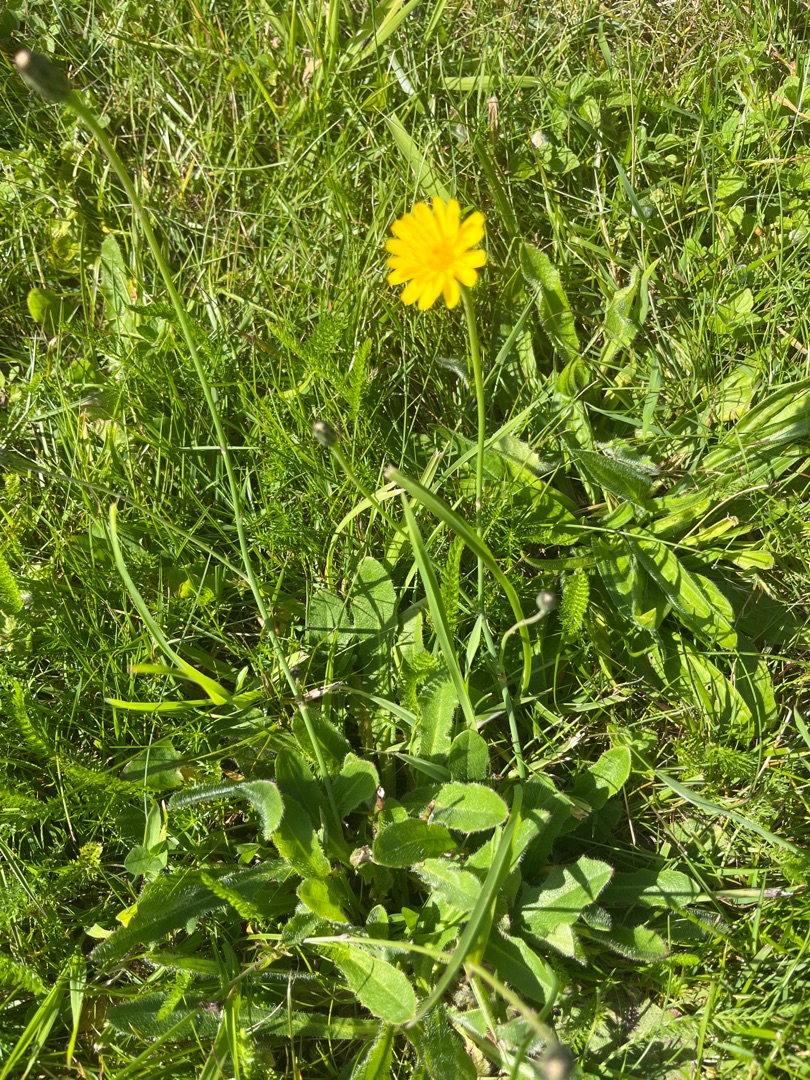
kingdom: Plantae
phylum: Tracheophyta
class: Magnoliopsida
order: Asterales
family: Asteraceae
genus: Hypochaeris
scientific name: Hypochaeris radicata
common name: Almindelig kongepen
